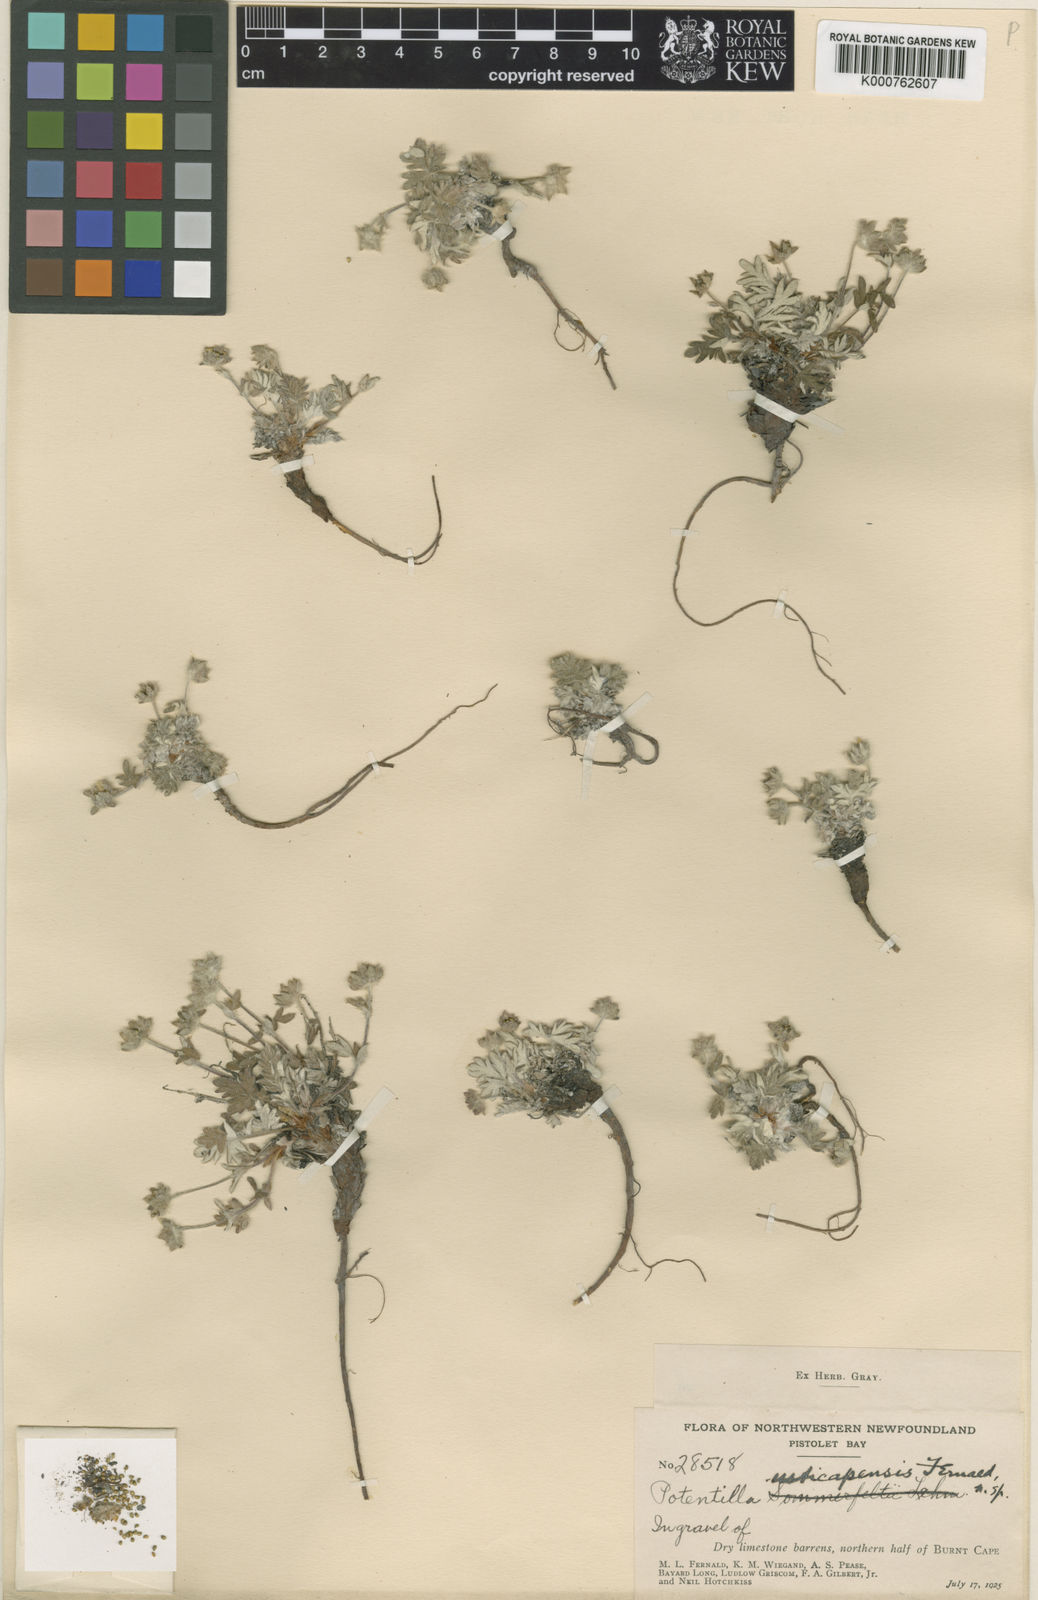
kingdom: Plantae
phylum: Tracheophyta
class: Magnoliopsida
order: Rosales
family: Rosaceae
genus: Potentilla
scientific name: Potentilla pulchella
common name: Pretty cinquefoil
